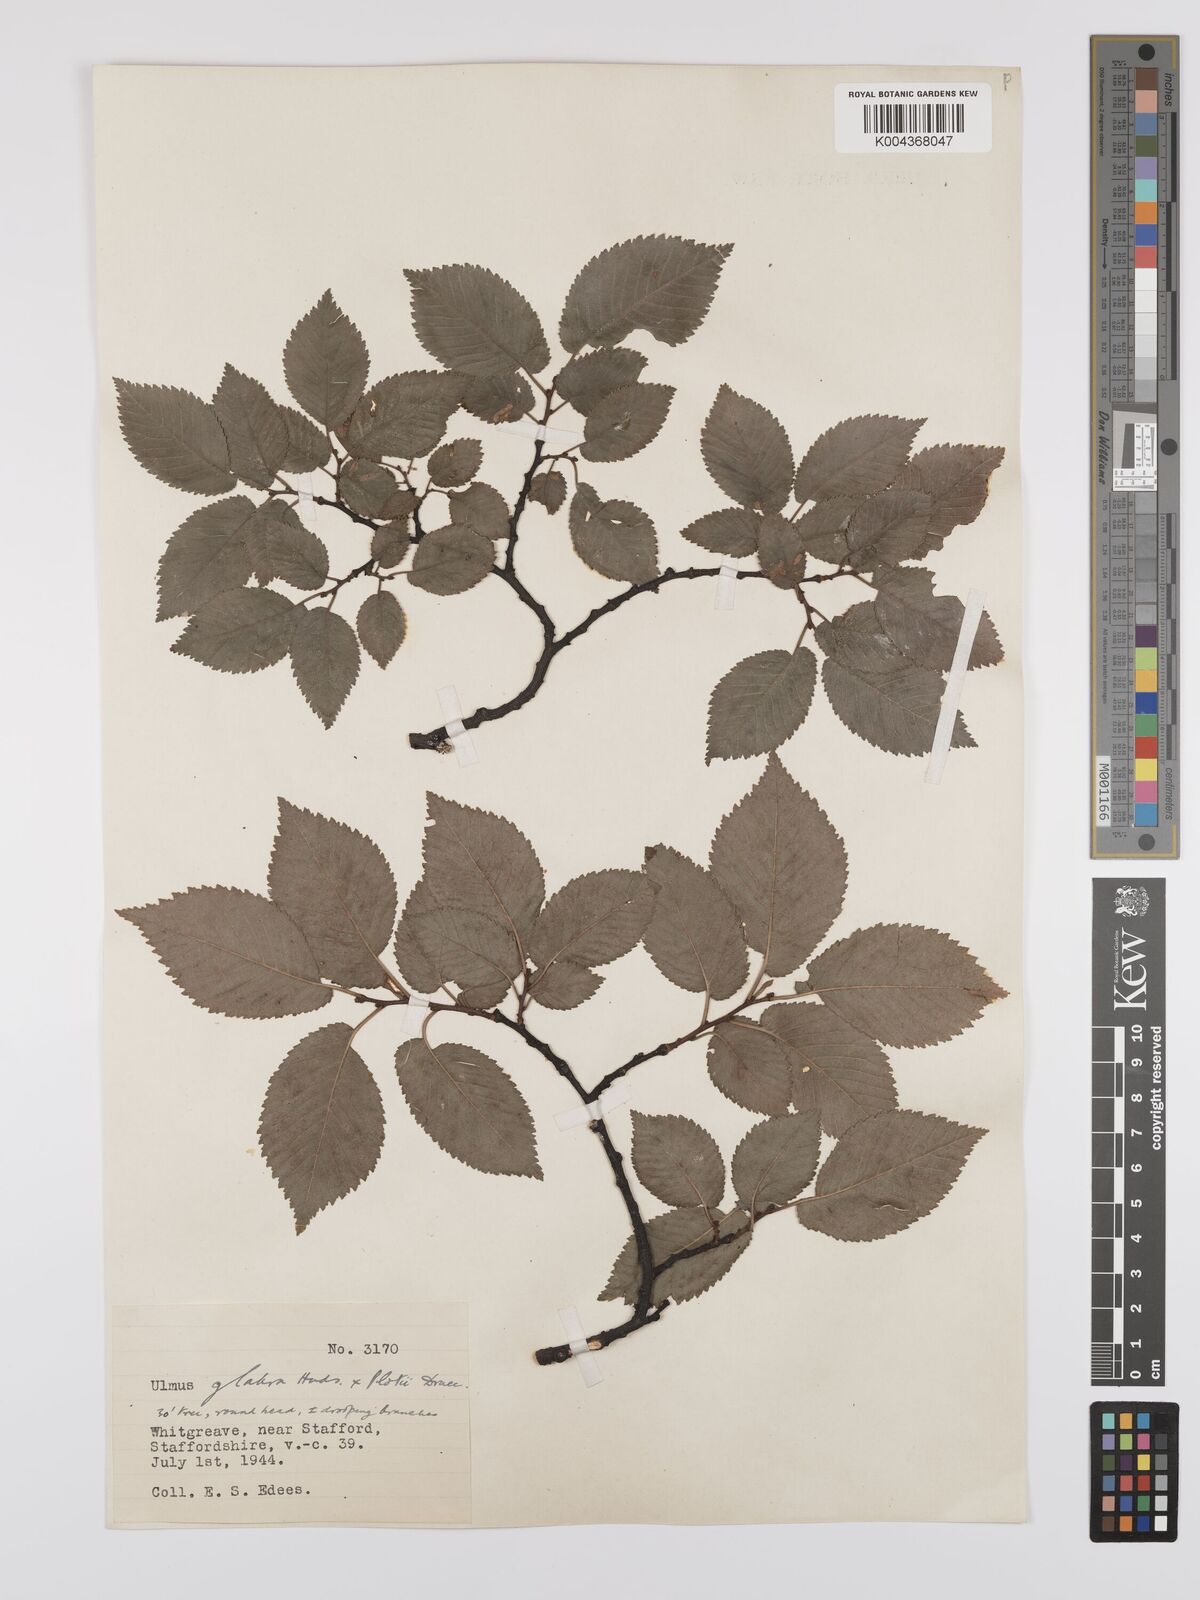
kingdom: Plantae
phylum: Tracheophyta
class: Magnoliopsida
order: Rosales
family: Ulmaceae
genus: Ulmus
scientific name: Ulmus
